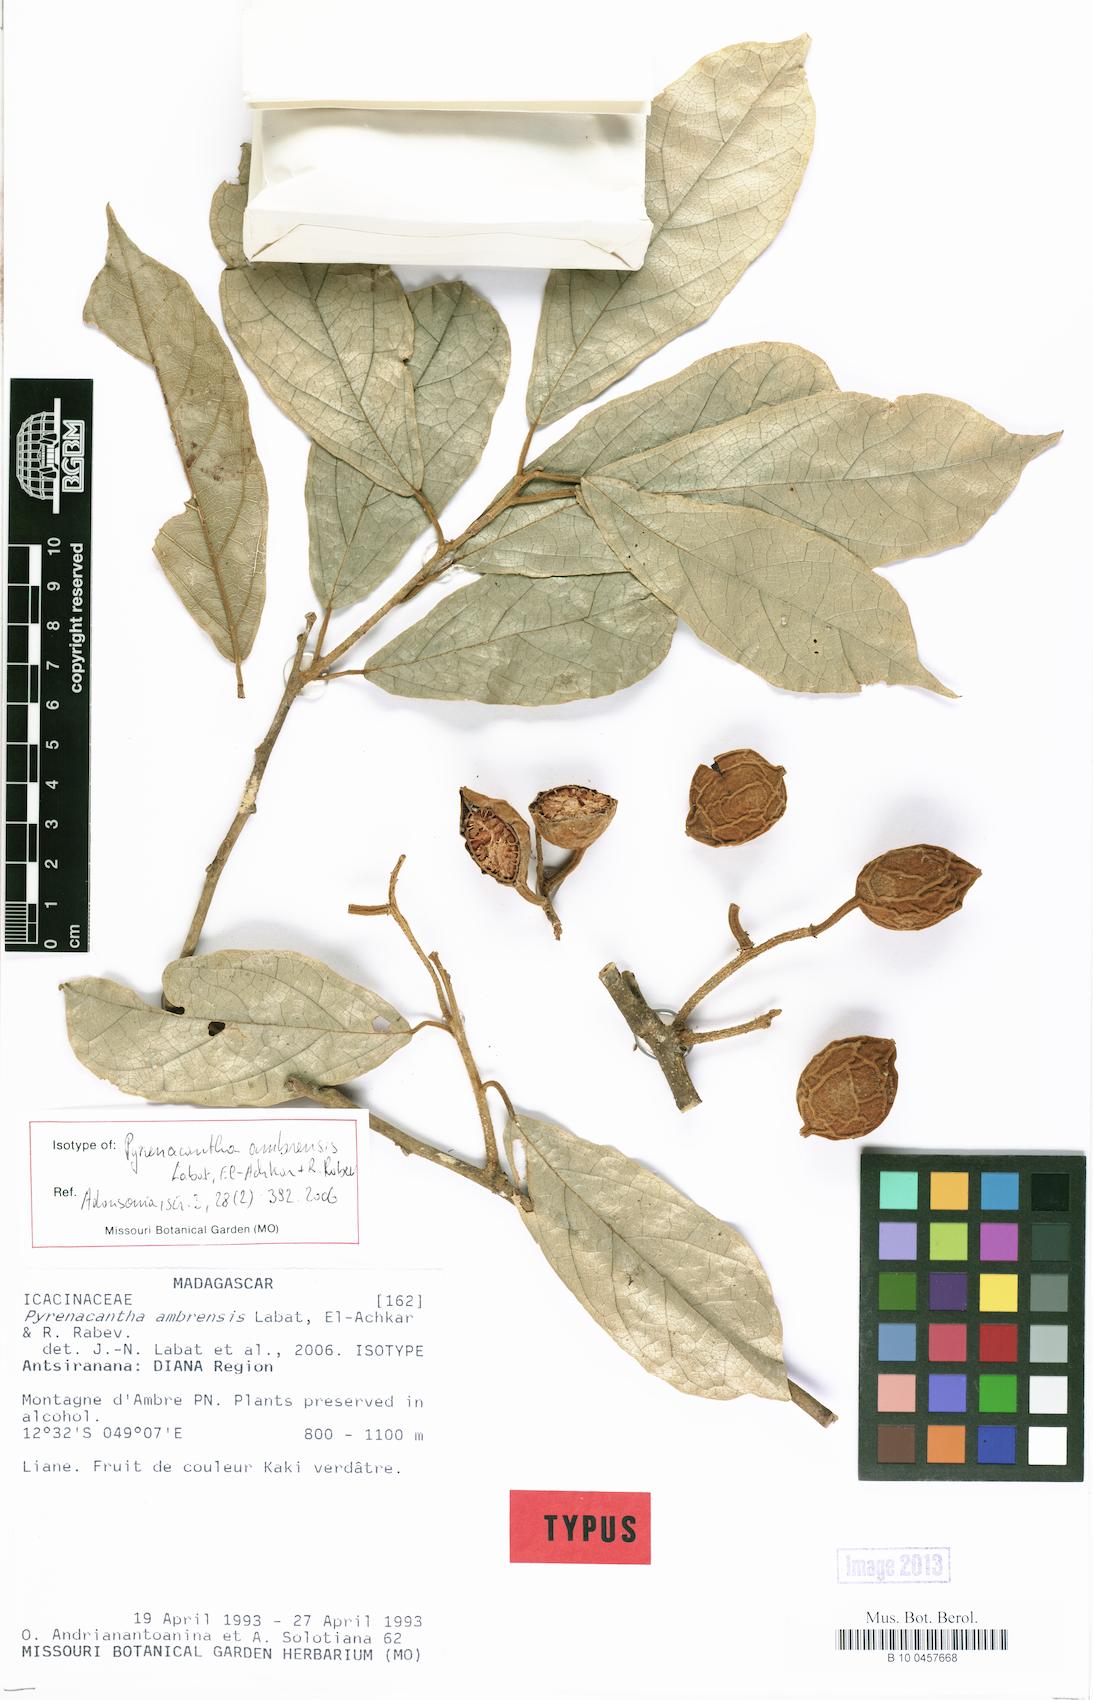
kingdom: Plantae
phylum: Tracheophyta
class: Magnoliopsida
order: Icacinales
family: Icacinaceae
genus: Pyrenacantha
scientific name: Pyrenacantha ambrensis
